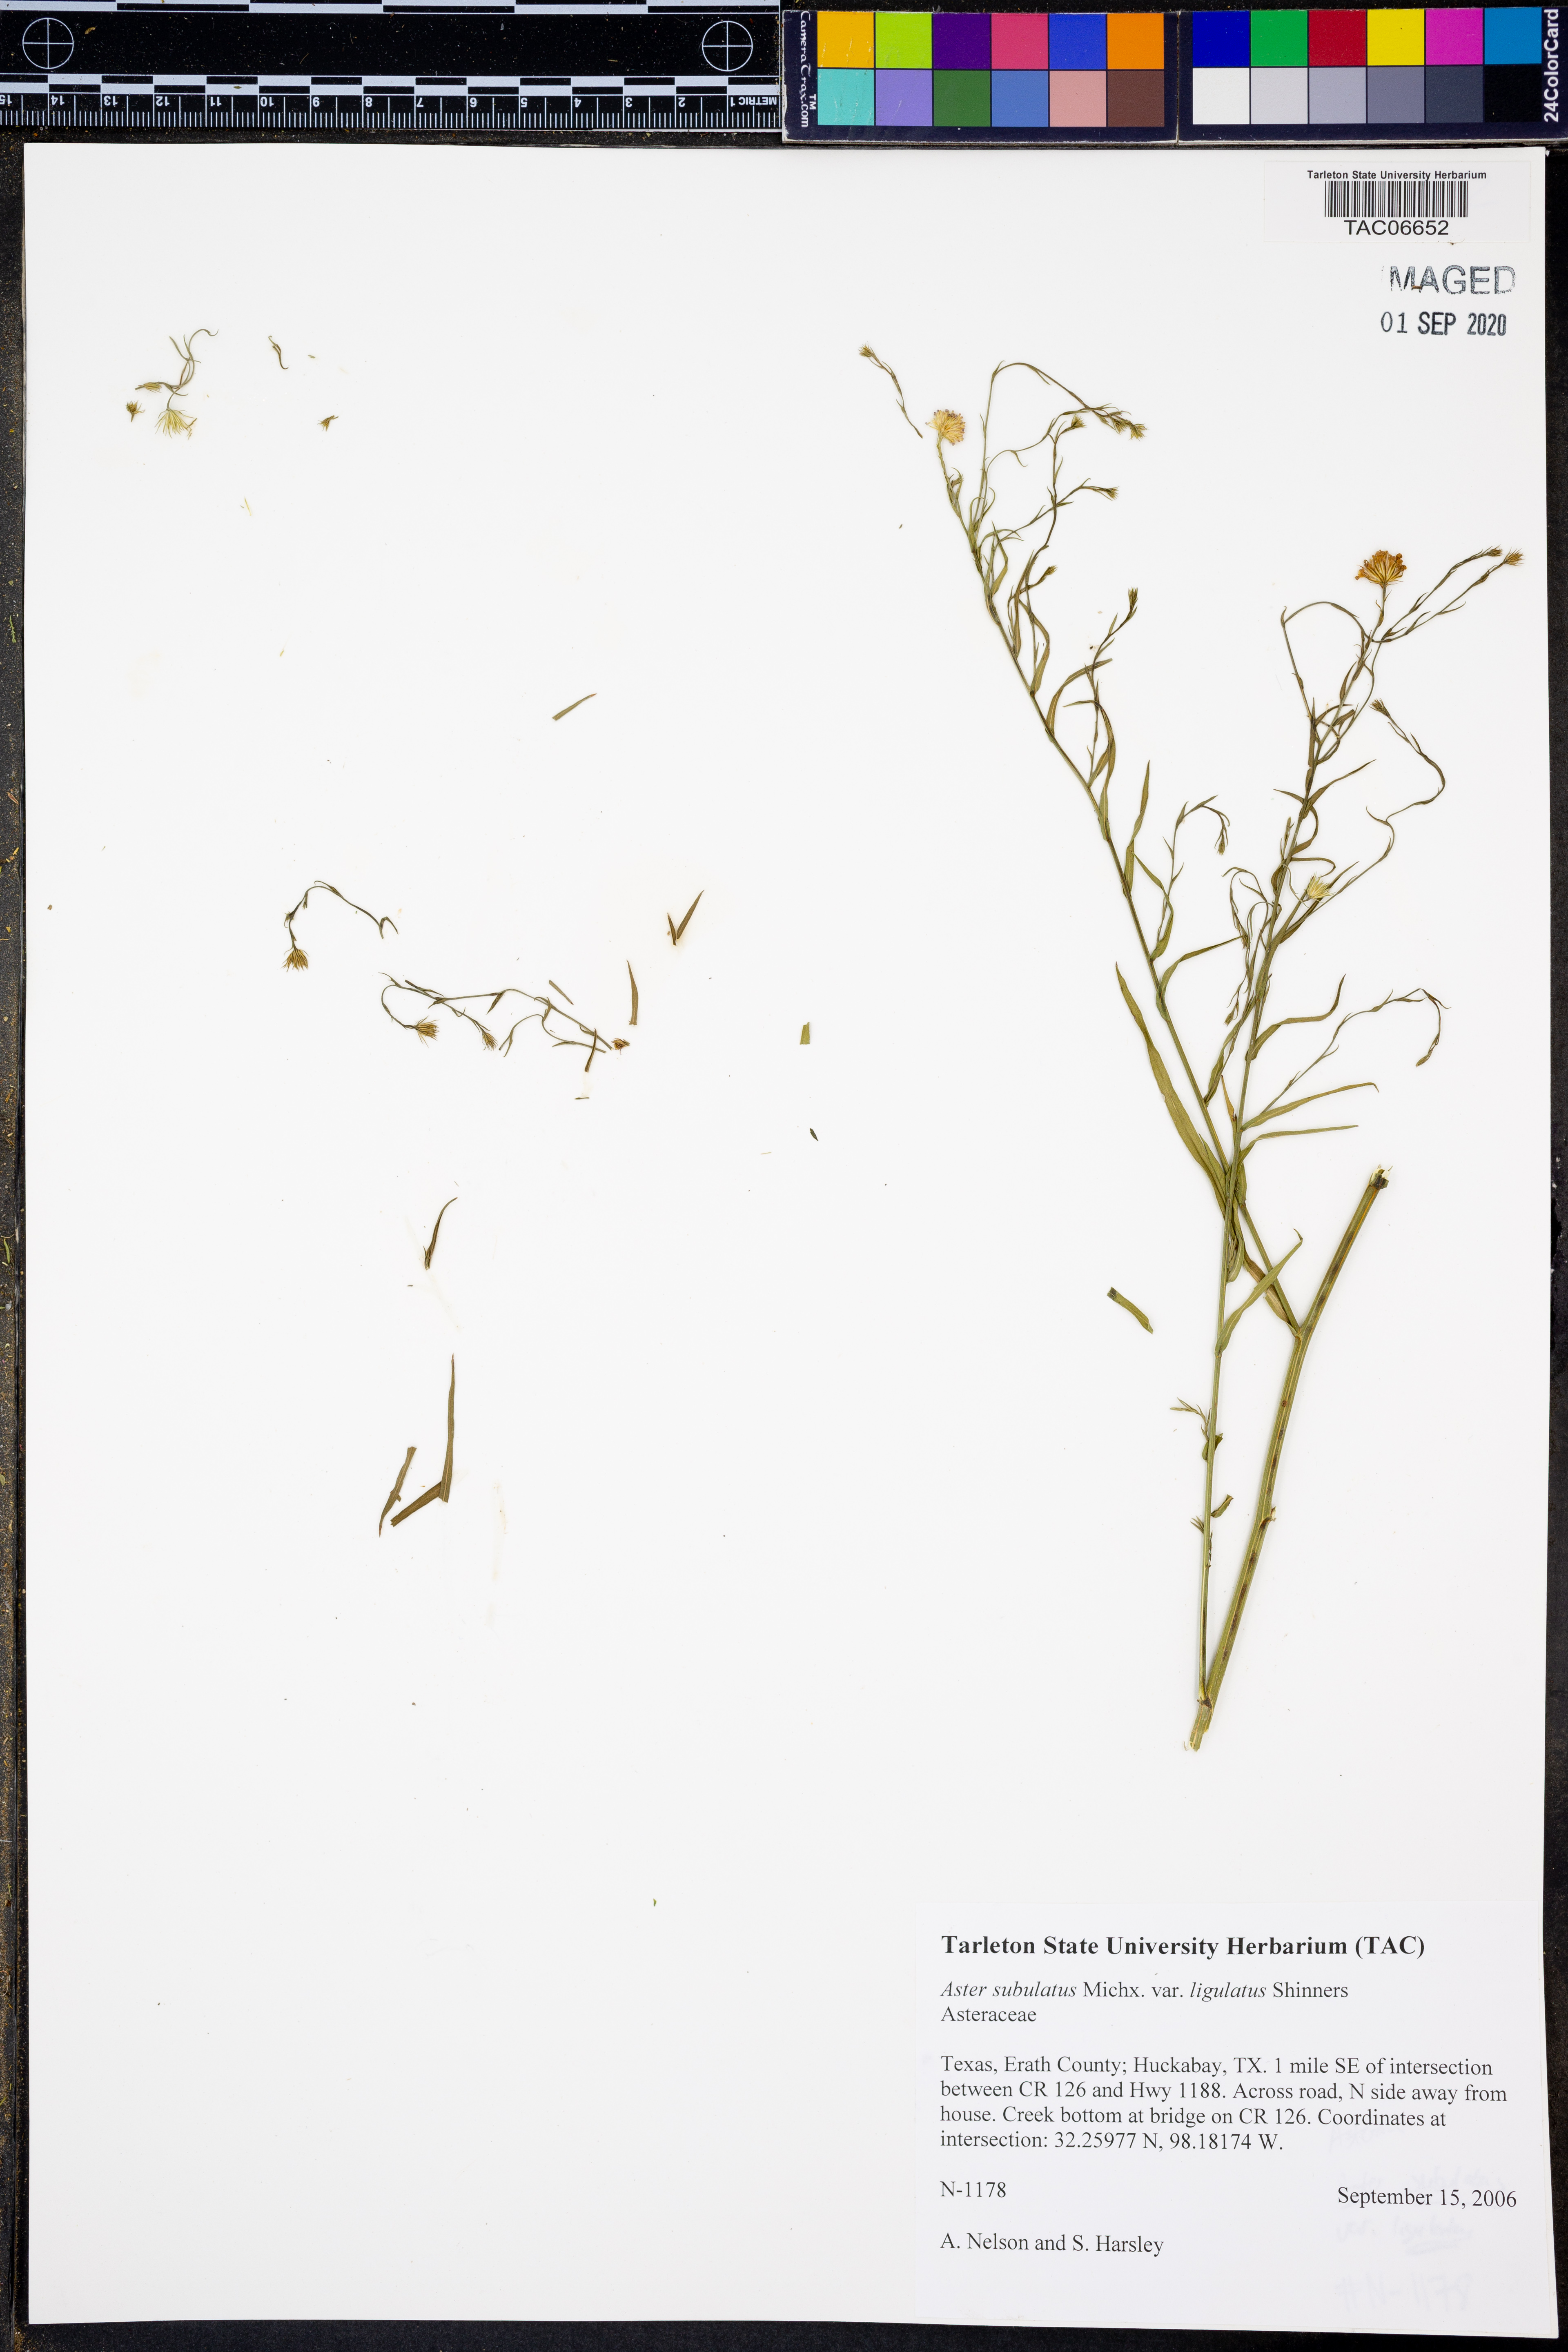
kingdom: Plantae
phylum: Tracheophyta
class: Magnoliopsida
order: Asterales
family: Asteraceae
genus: Symphyotrichum
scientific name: Symphyotrichum divaricatum
